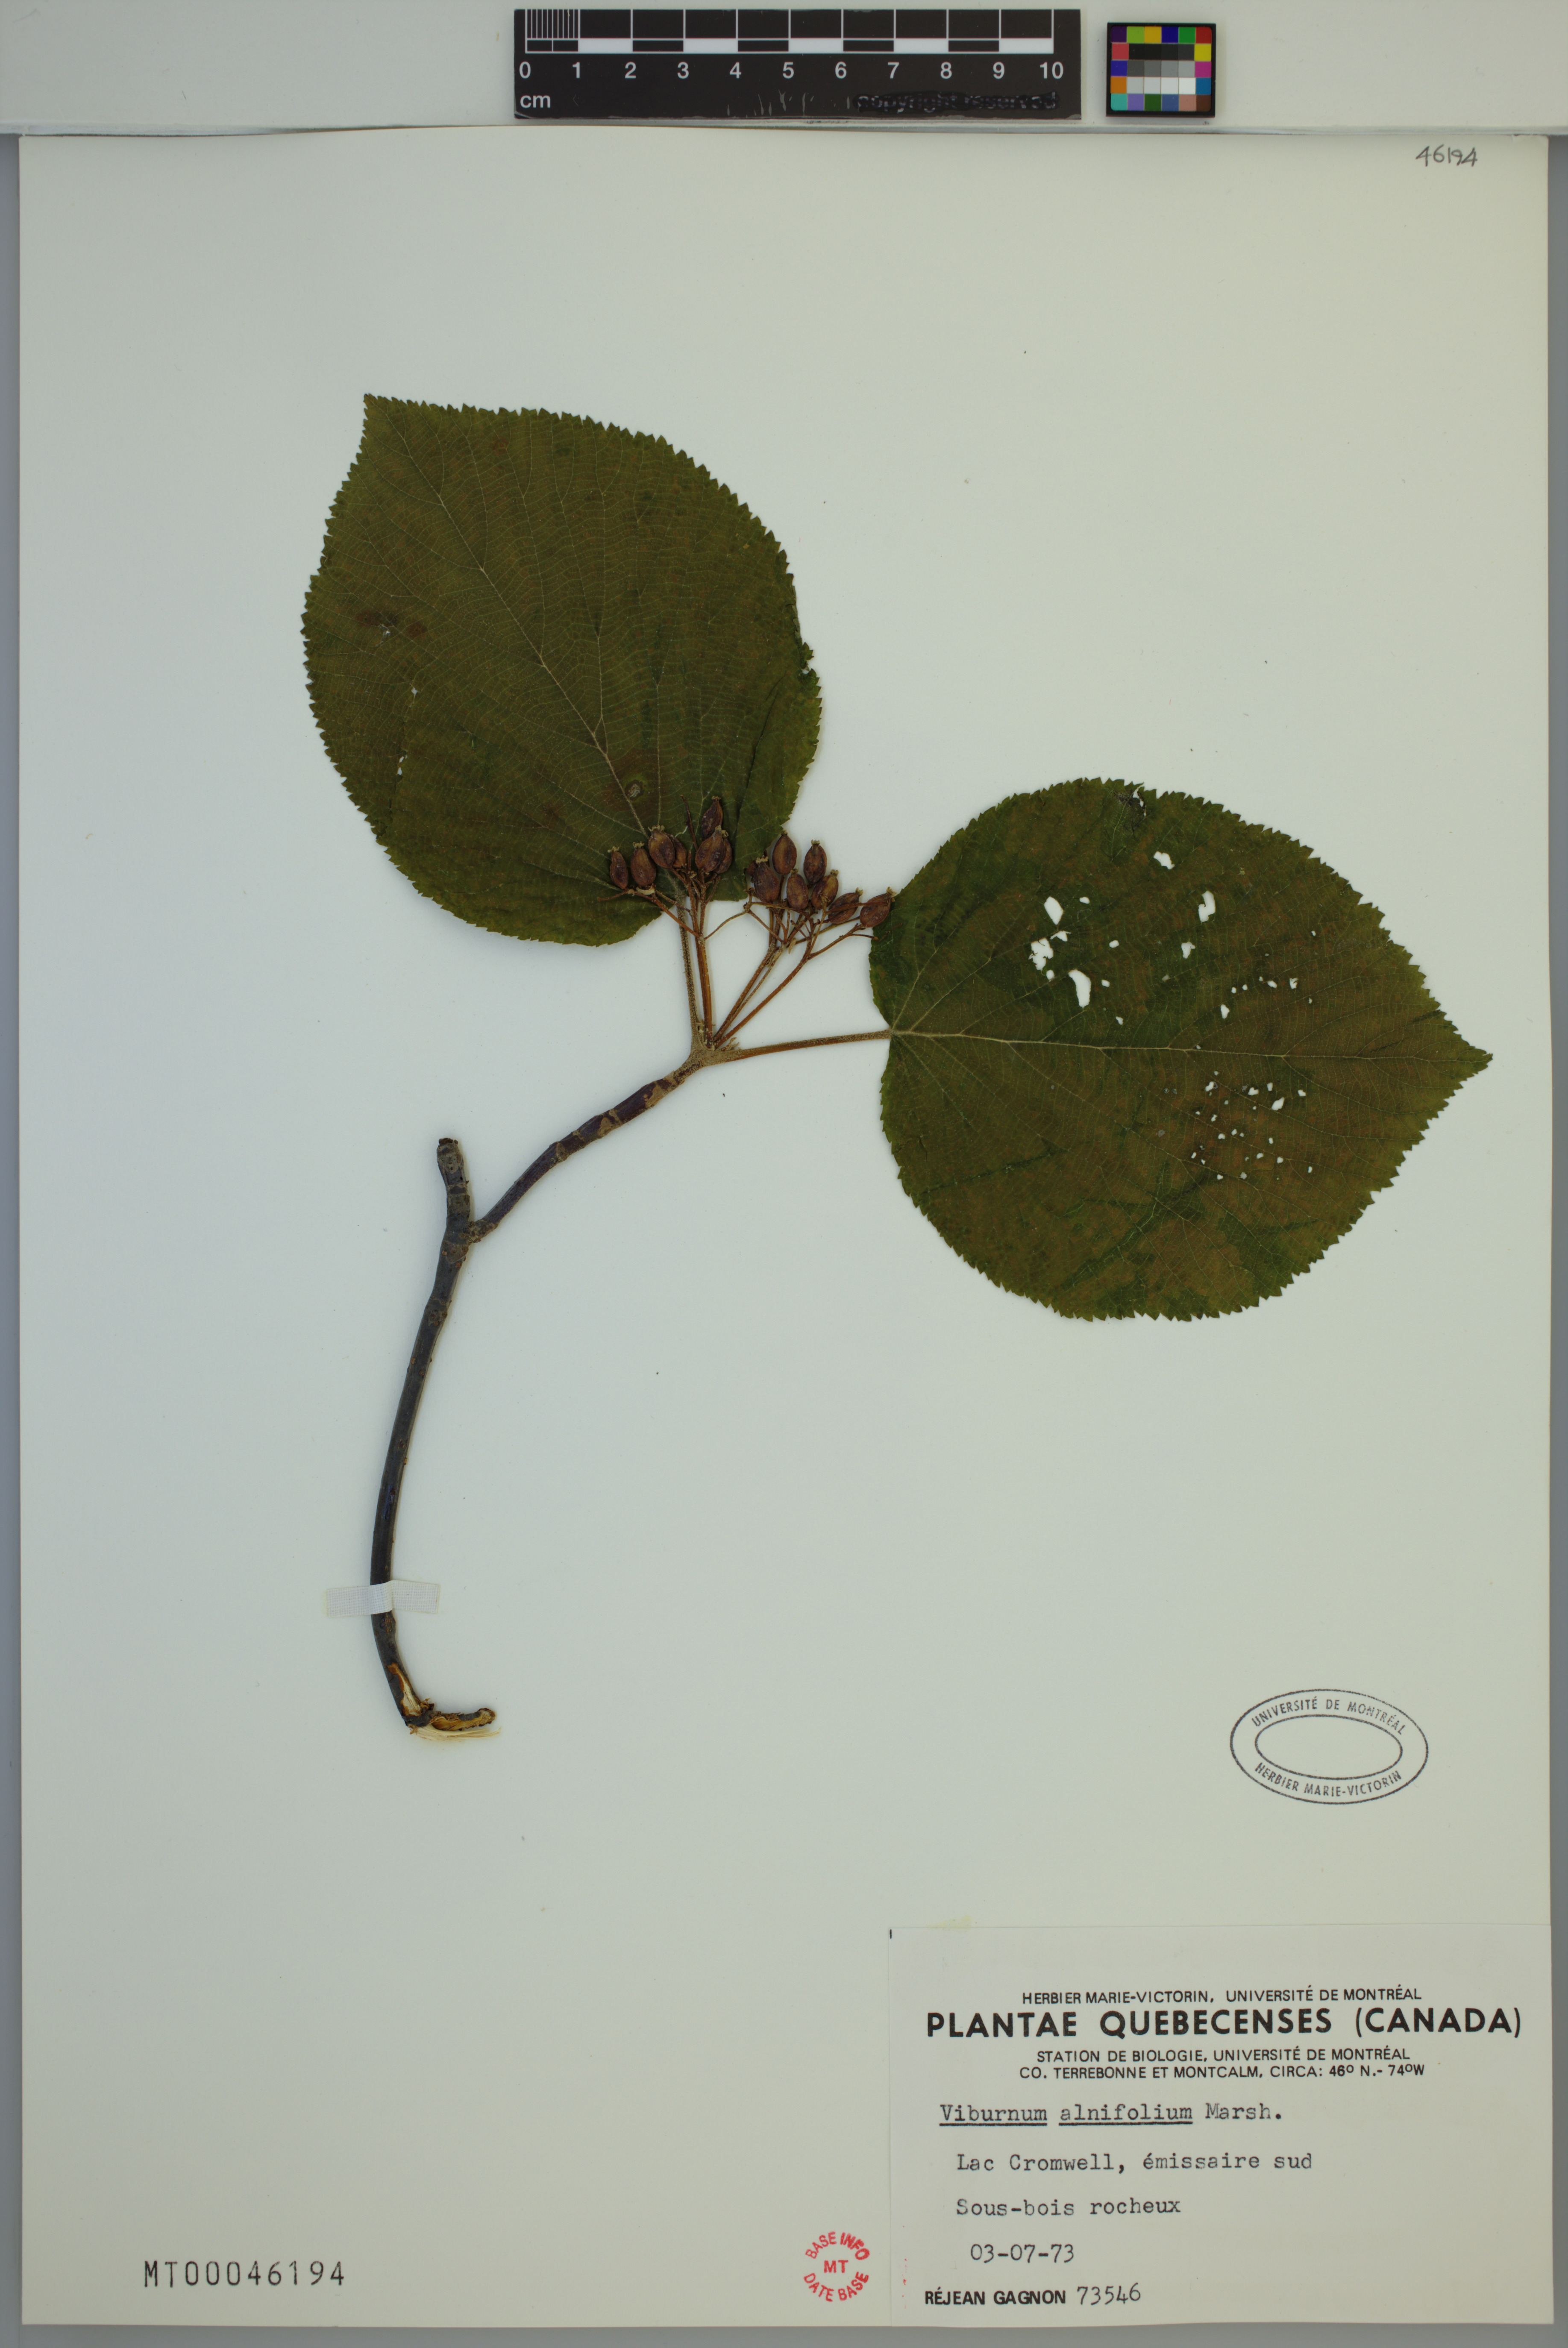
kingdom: Plantae
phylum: Tracheophyta
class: Magnoliopsida
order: Dipsacales
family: Viburnaceae
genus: Viburnum
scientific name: Viburnum lantanoides
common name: Hobblebush
